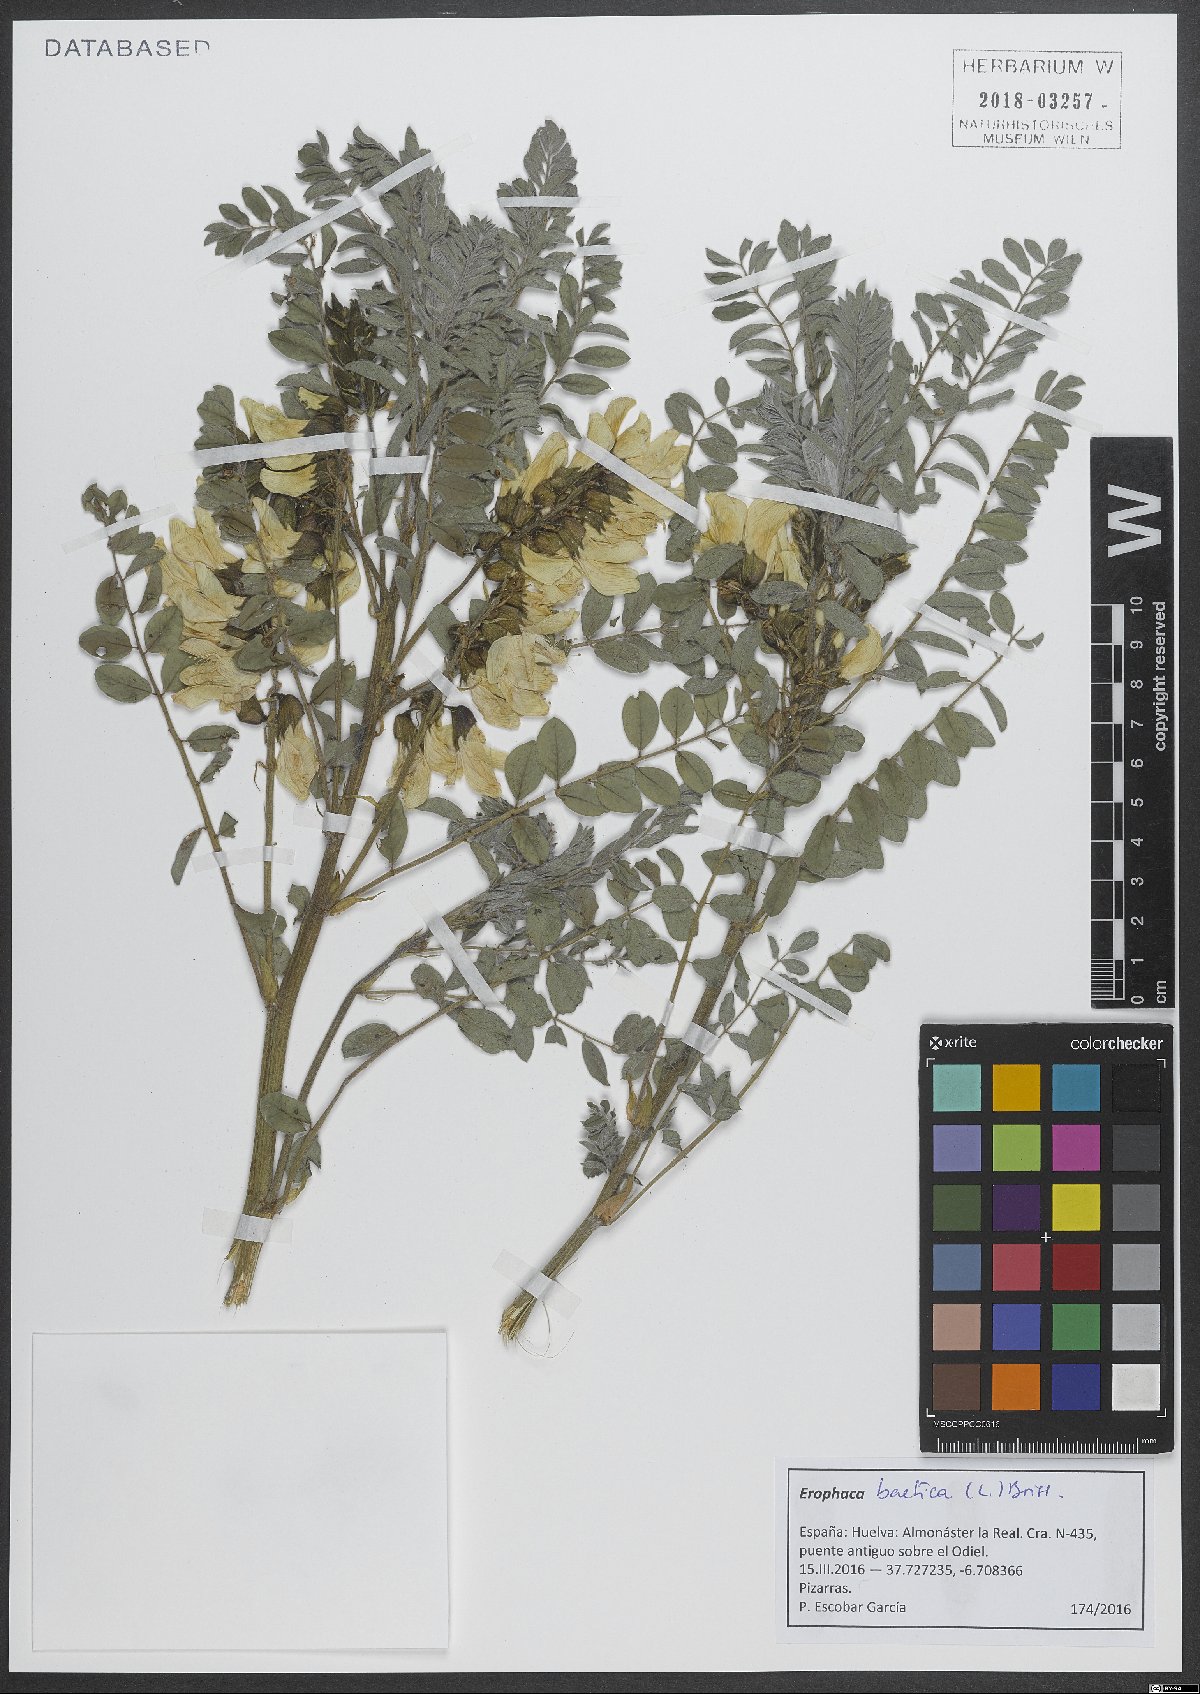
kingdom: Plantae
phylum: Tracheophyta
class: Magnoliopsida
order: Fabales
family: Fabaceae
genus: Erophaca
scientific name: Erophaca baetica
